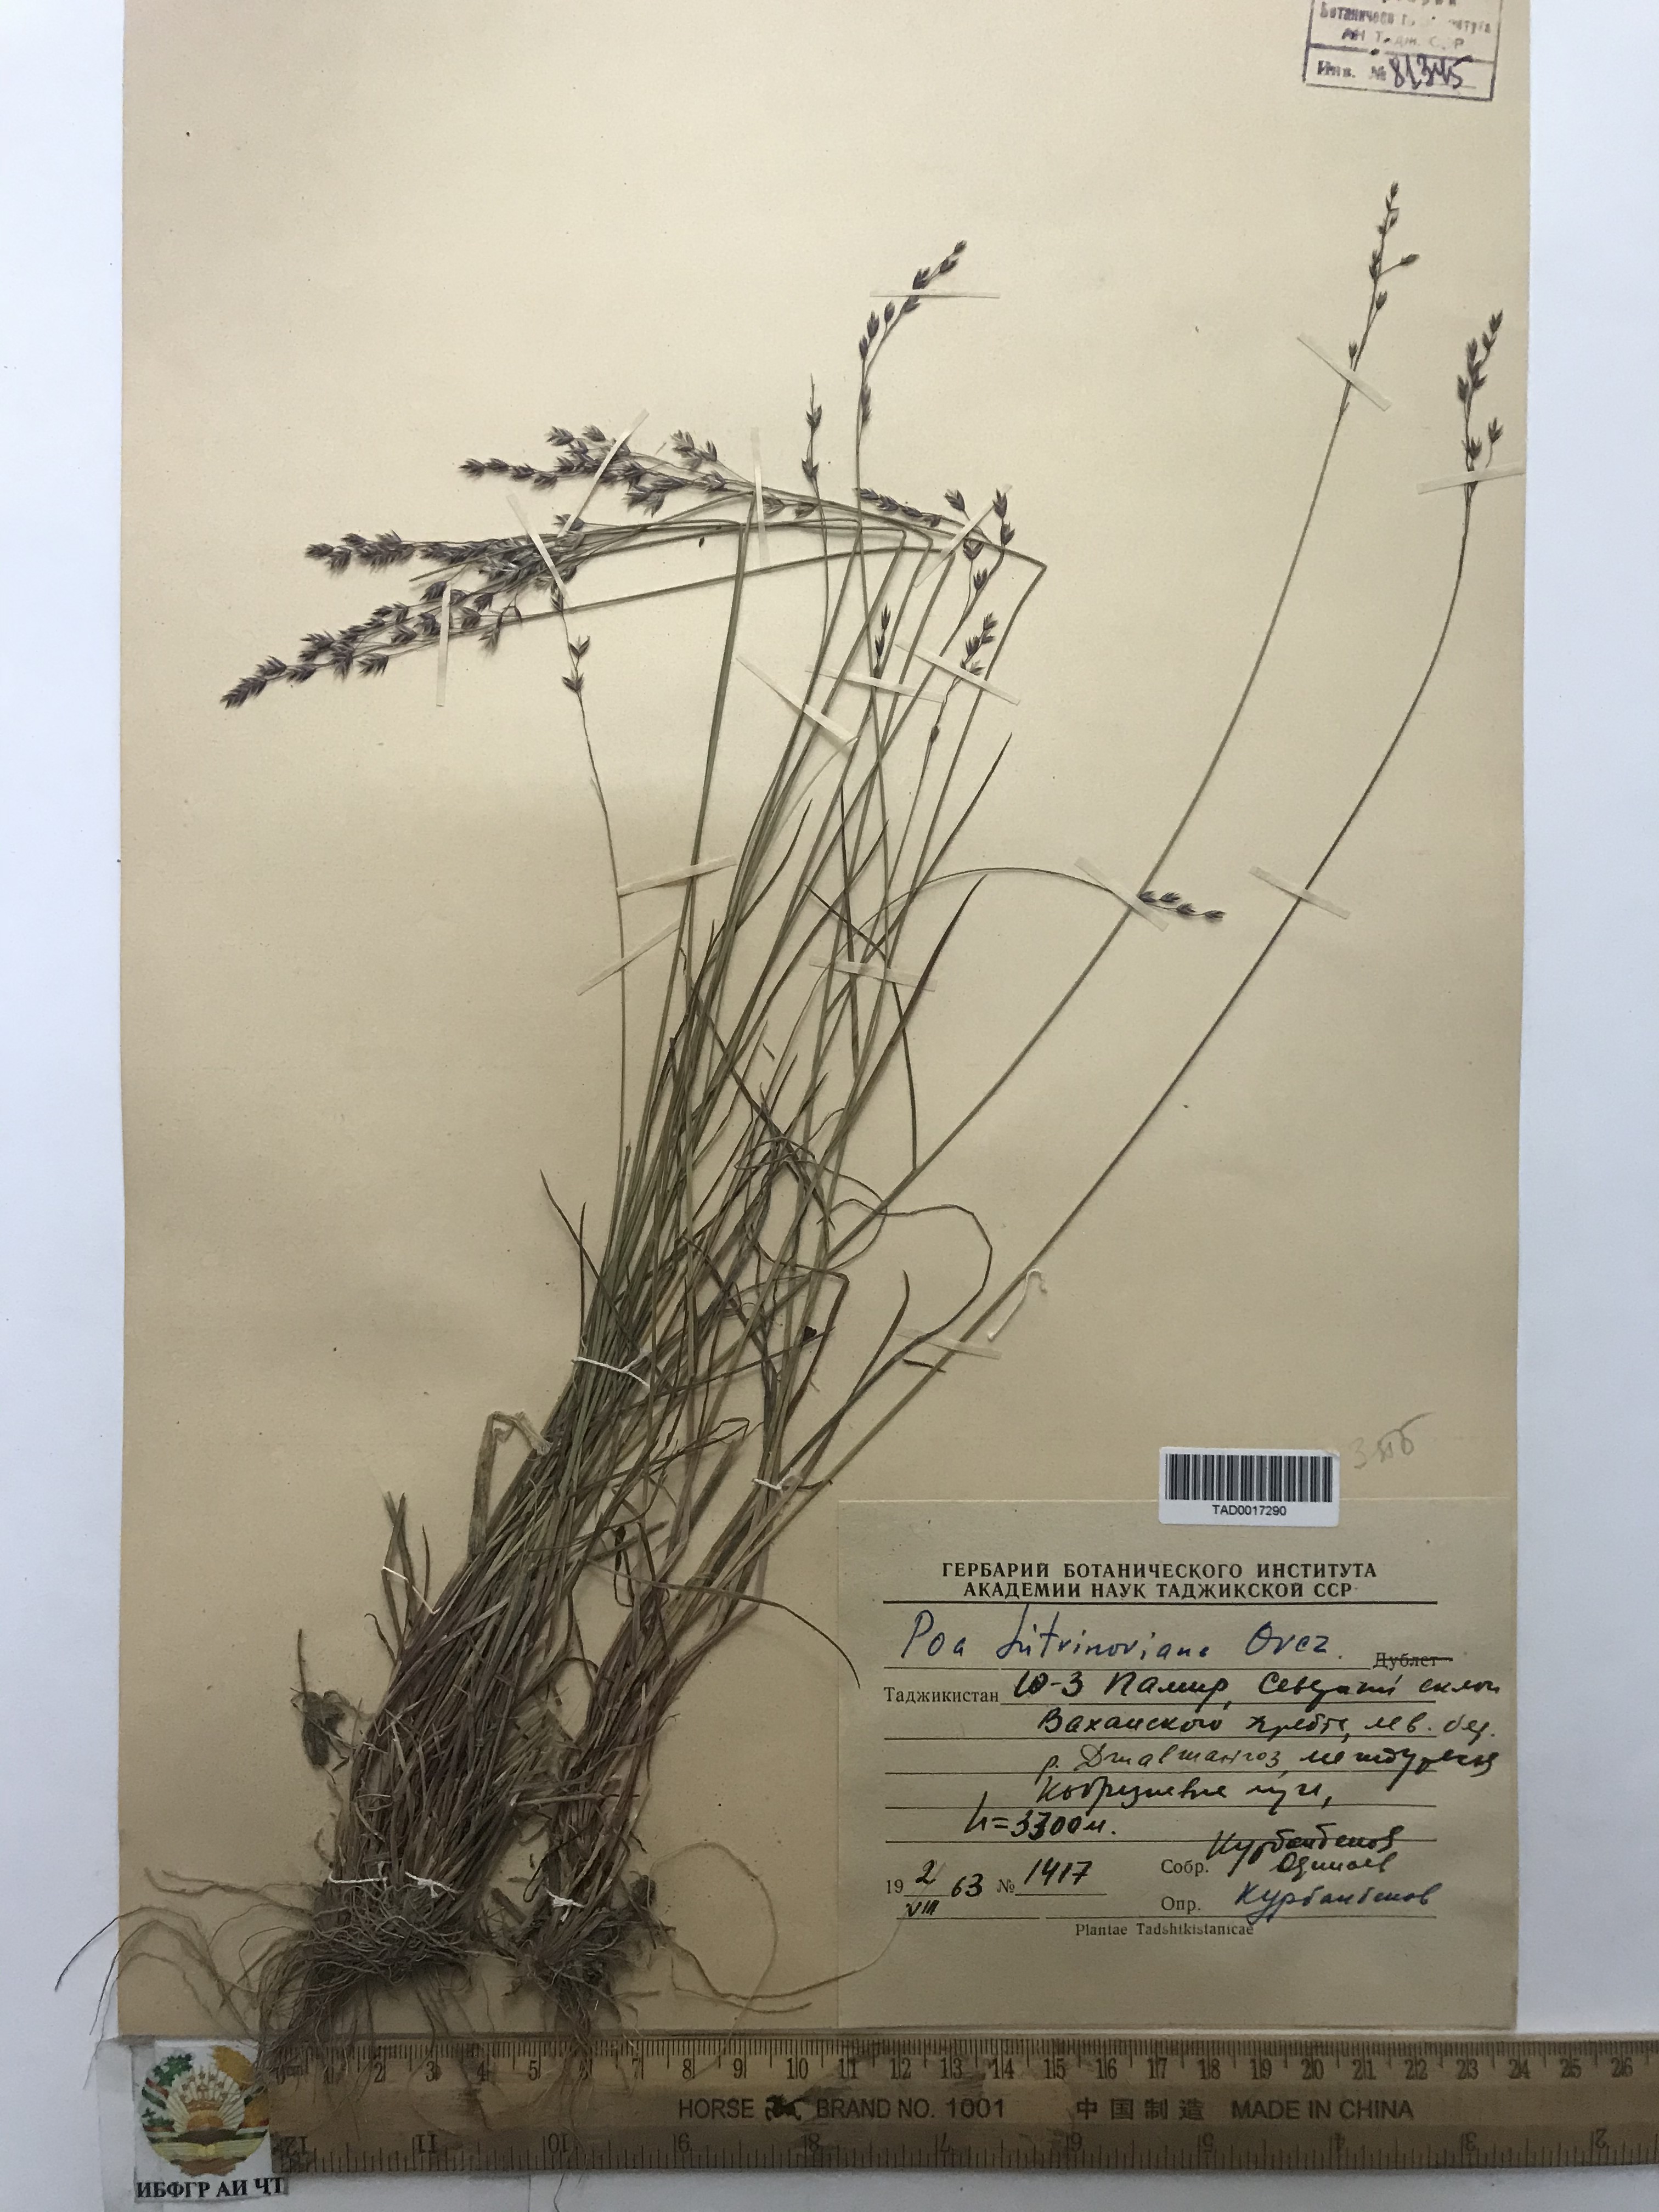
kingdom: Plantae
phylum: Tracheophyta
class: Liliopsida
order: Poales
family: Poaceae
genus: Poa
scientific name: Poa glauca
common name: Glaucous bluegrass
